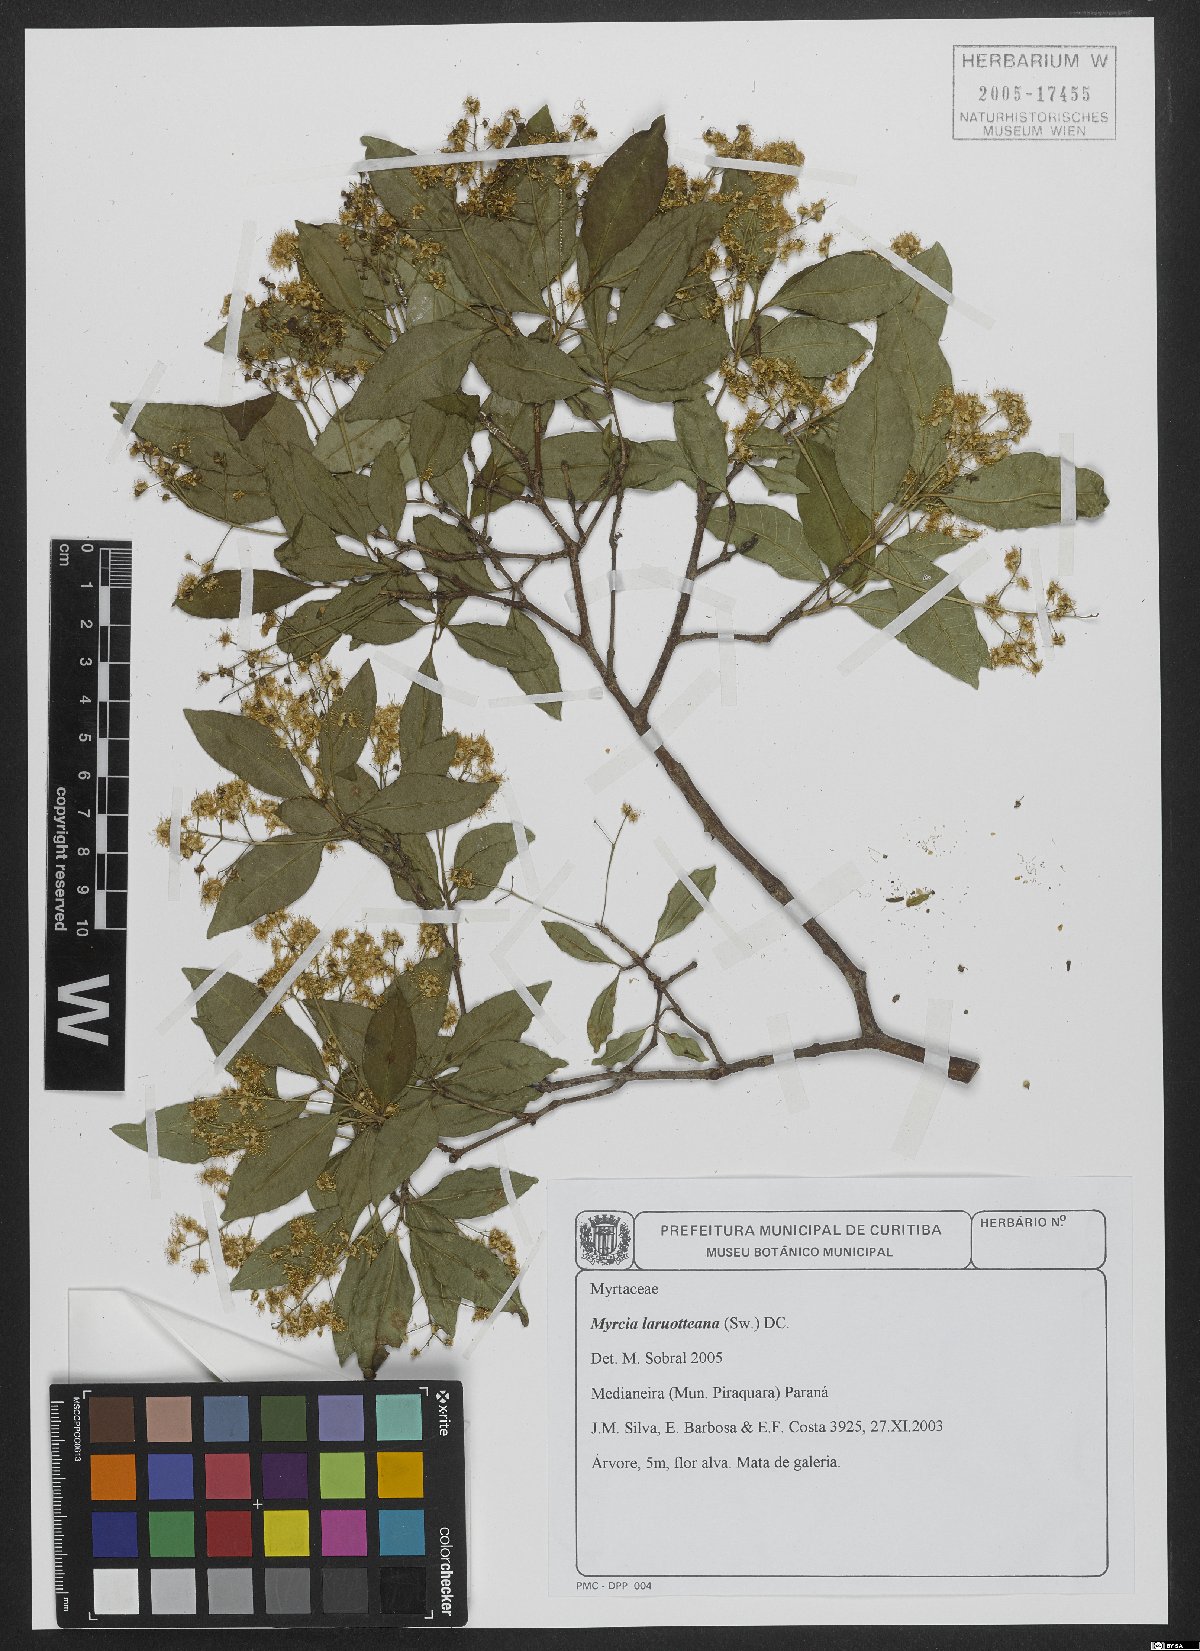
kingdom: Plantae
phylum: Tracheophyta
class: Magnoliopsida
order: Myrtales
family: Myrtaceae
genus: Myrcia
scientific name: Myrcia laruotteana
